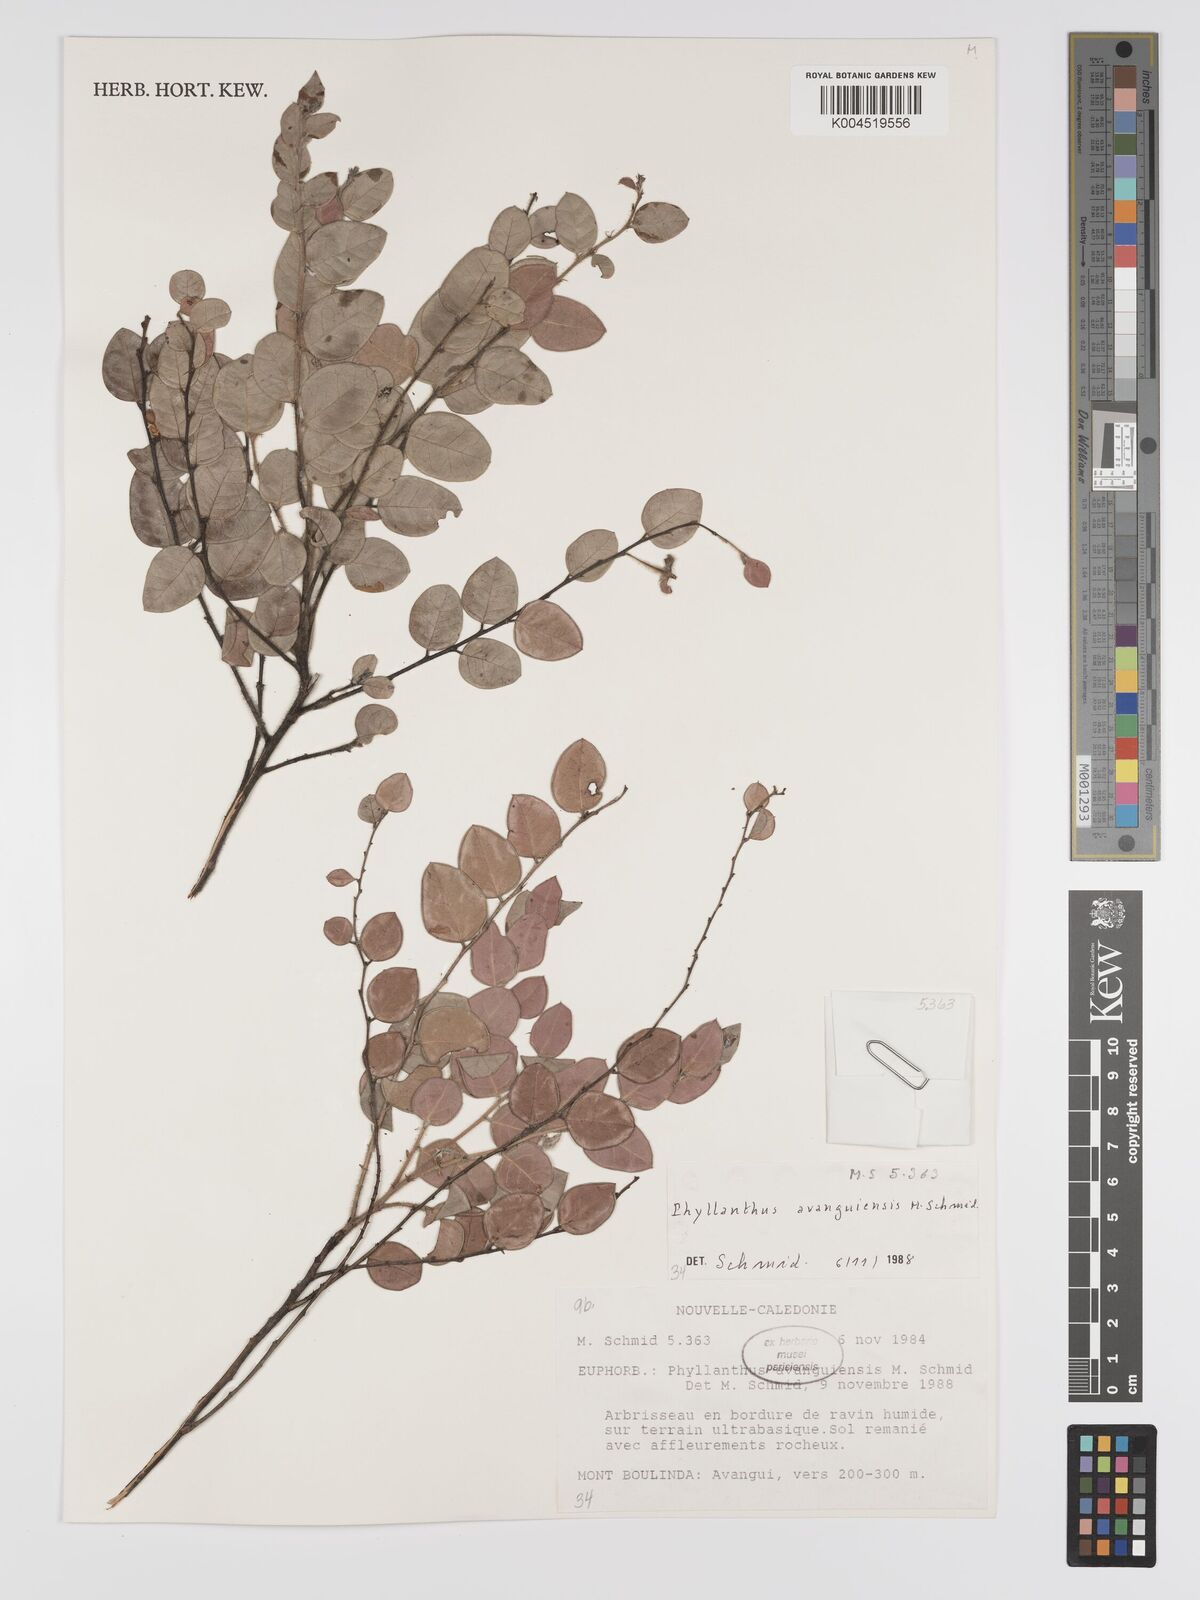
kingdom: Plantae
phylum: Tracheophyta
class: Magnoliopsida
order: Malpighiales
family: Phyllanthaceae
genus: Phyllanthus
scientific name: Phyllanthus avanguiensis
